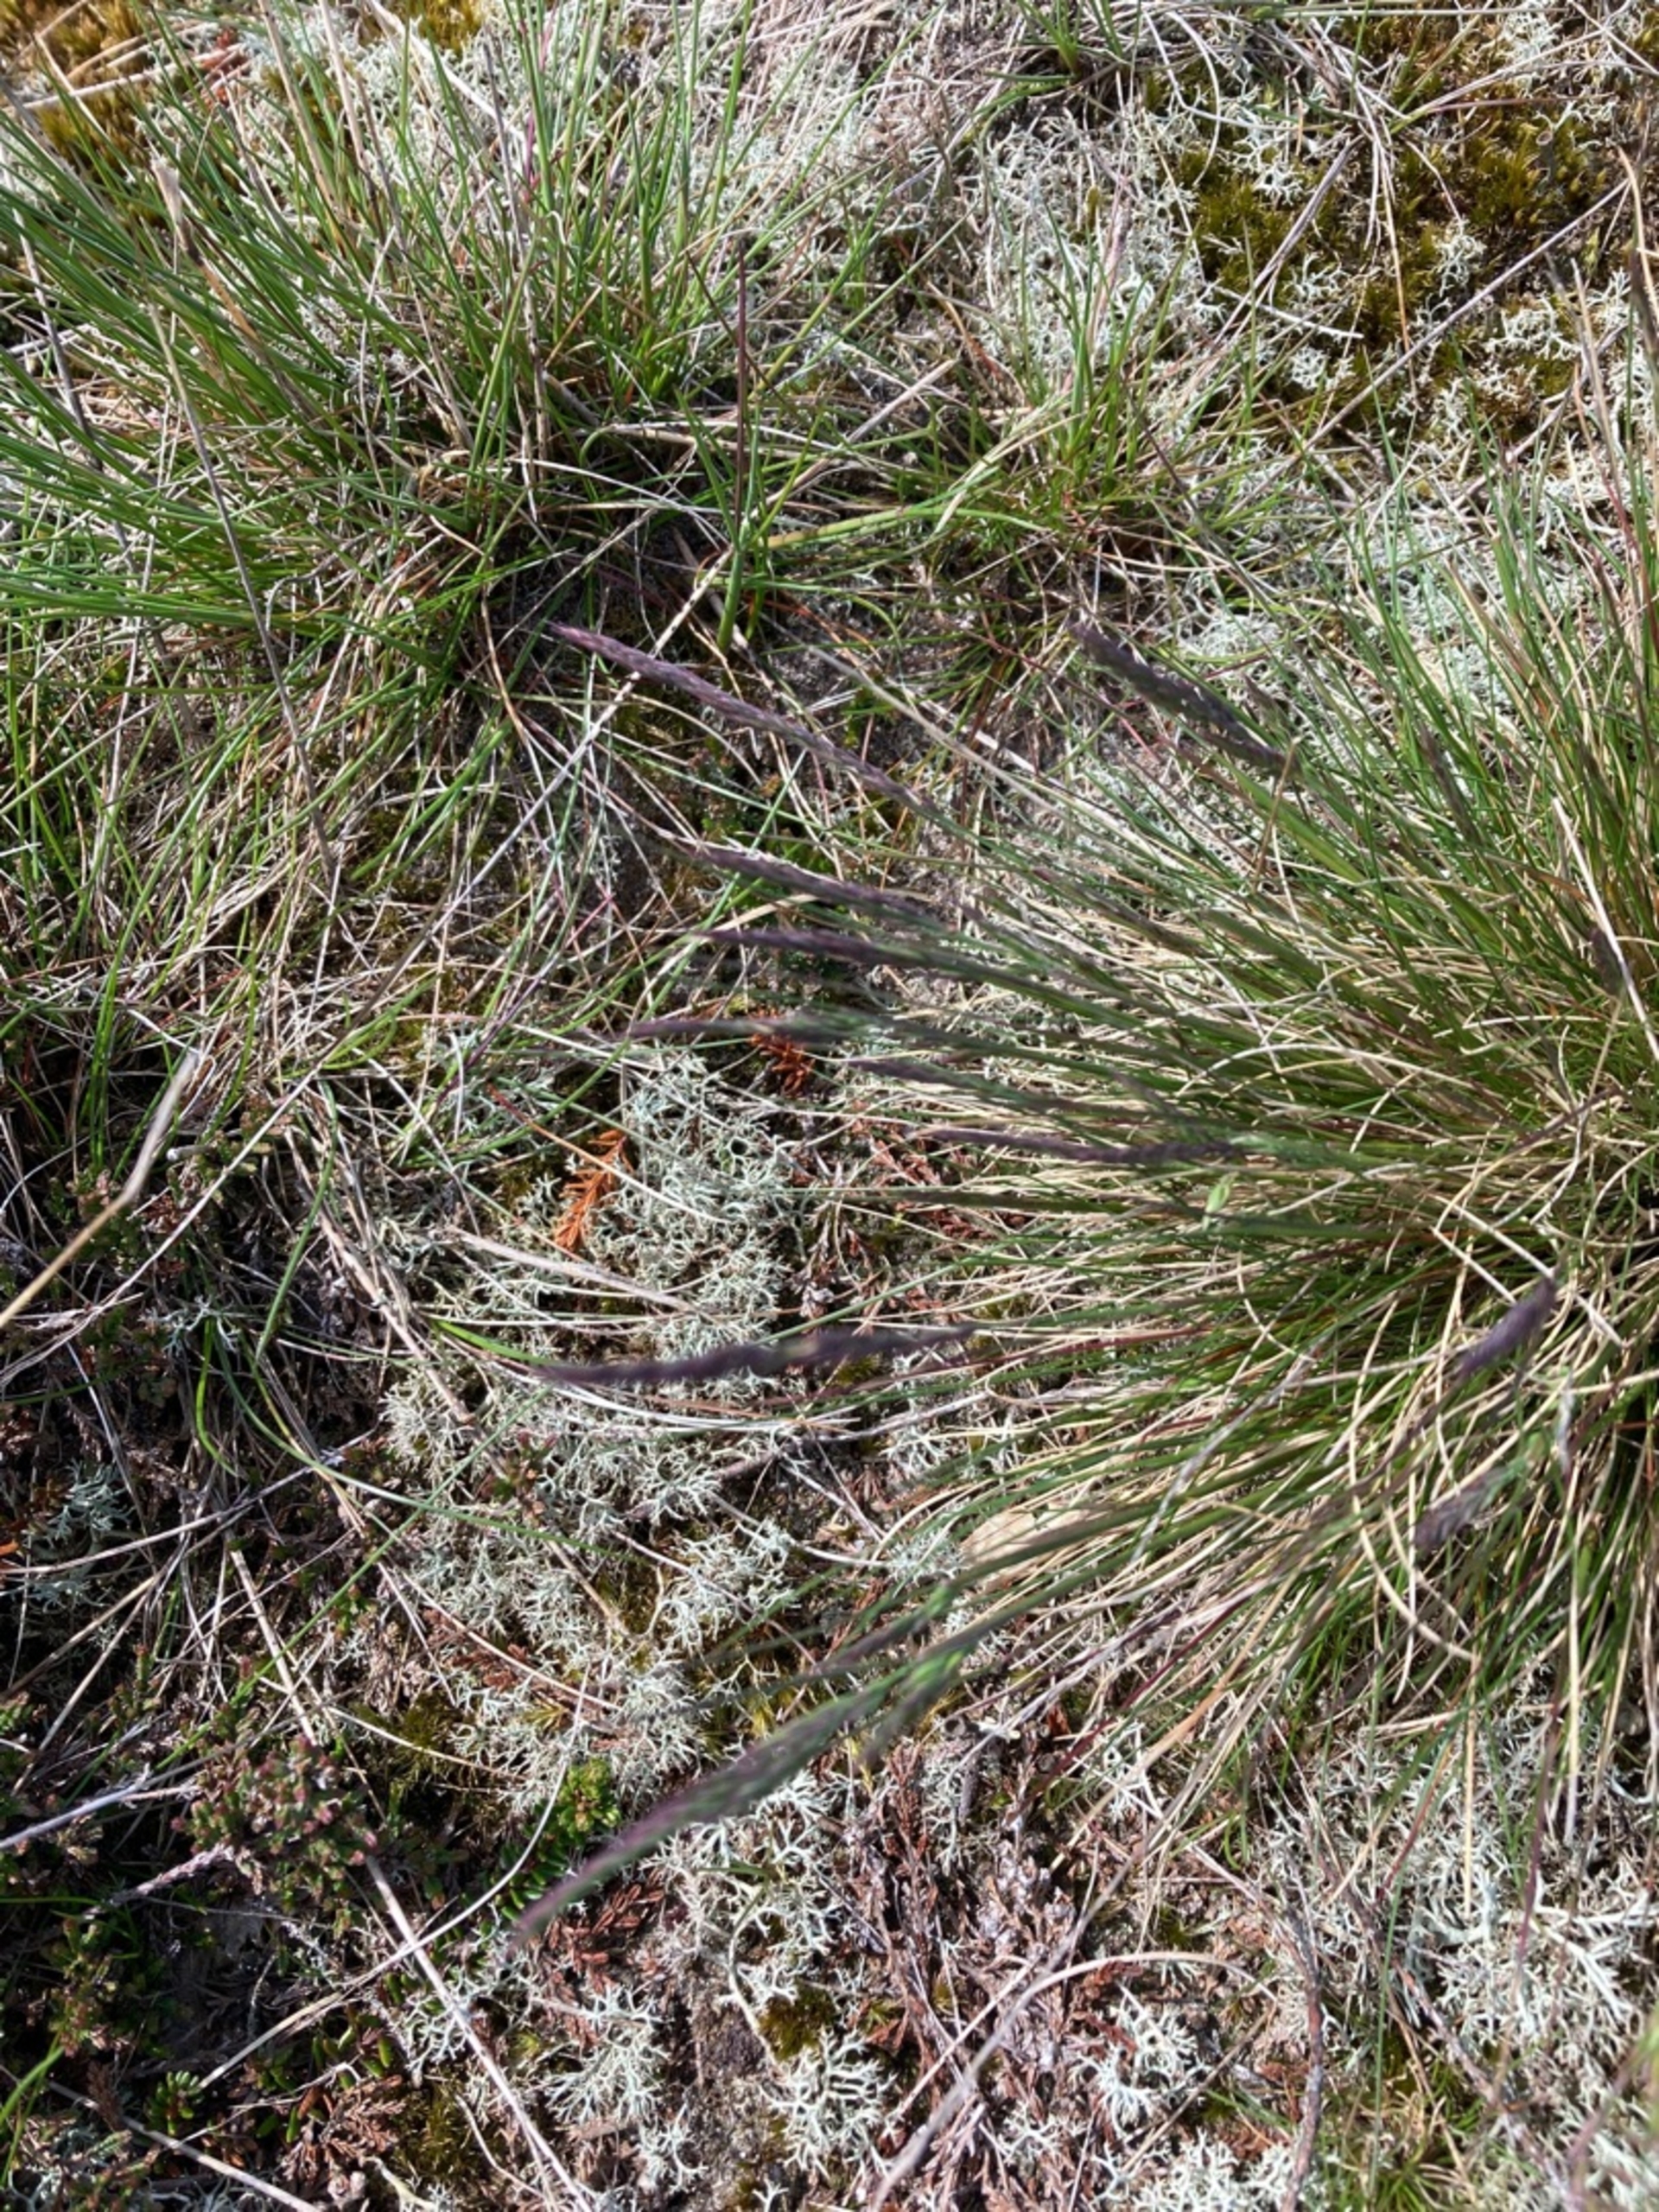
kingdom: Plantae
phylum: Tracheophyta
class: Liliopsida
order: Poales
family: Poaceae
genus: Festuca
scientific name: Festuca ovina
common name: Fåre-svingel
